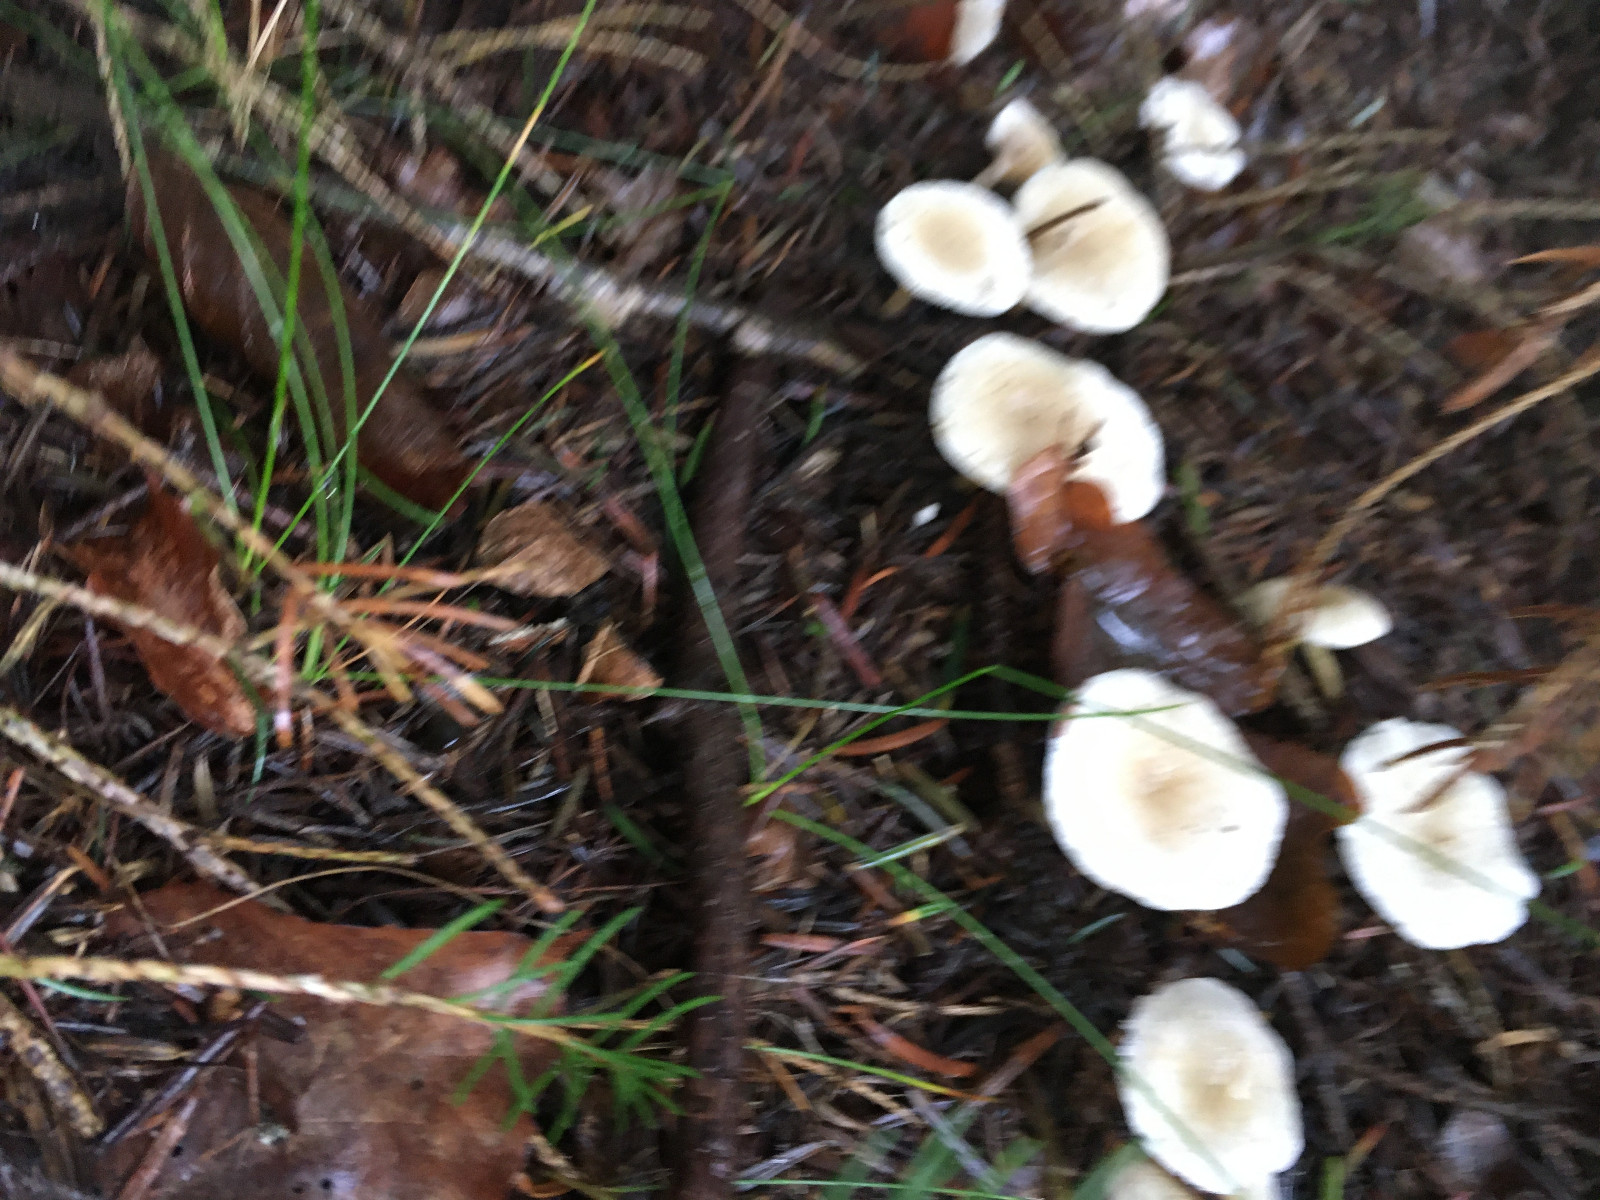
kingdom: Fungi
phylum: Basidiomycota
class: Agaricomycetes
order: Agaricales
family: Tricholomataceae
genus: Clitocybe
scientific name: Clitocybe
